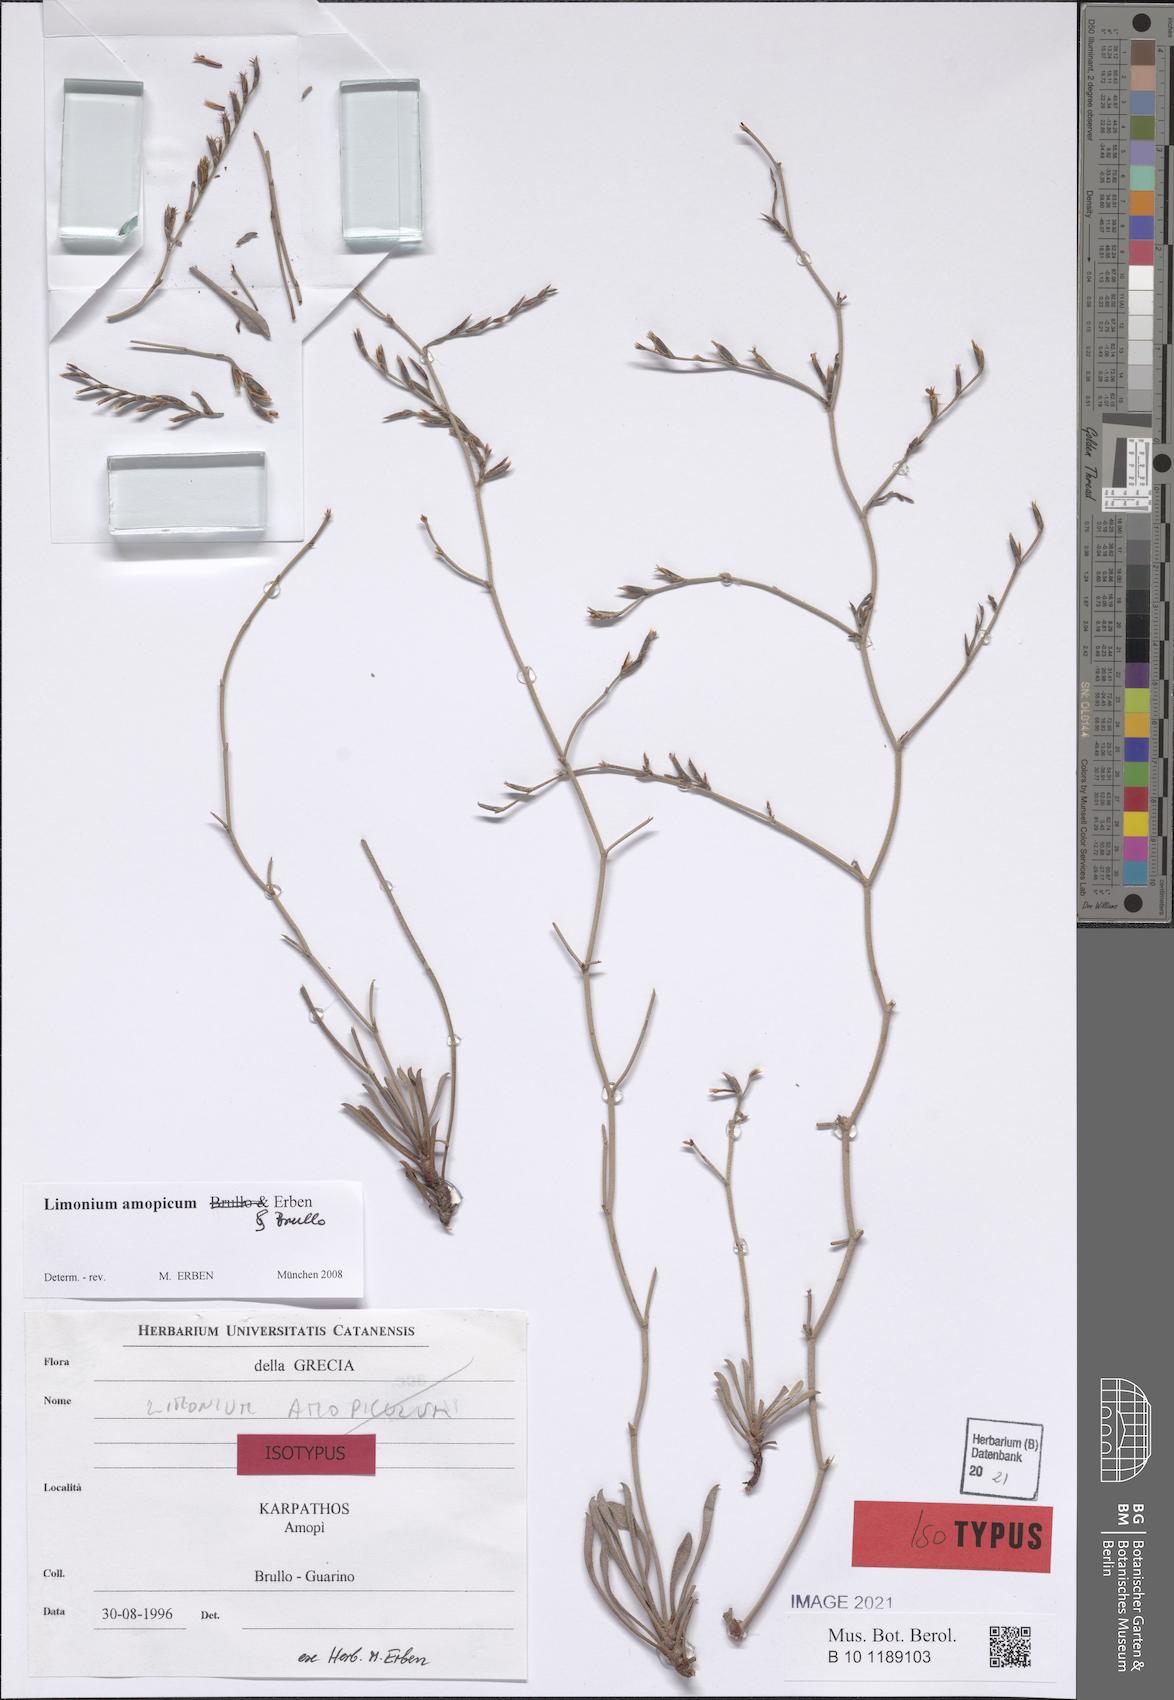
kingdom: Plantae
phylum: Tracheophyta
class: Magnoliopsida
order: Caryophyllales
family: Plumbaginaceae
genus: Limonium
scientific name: Limonium amopicum
